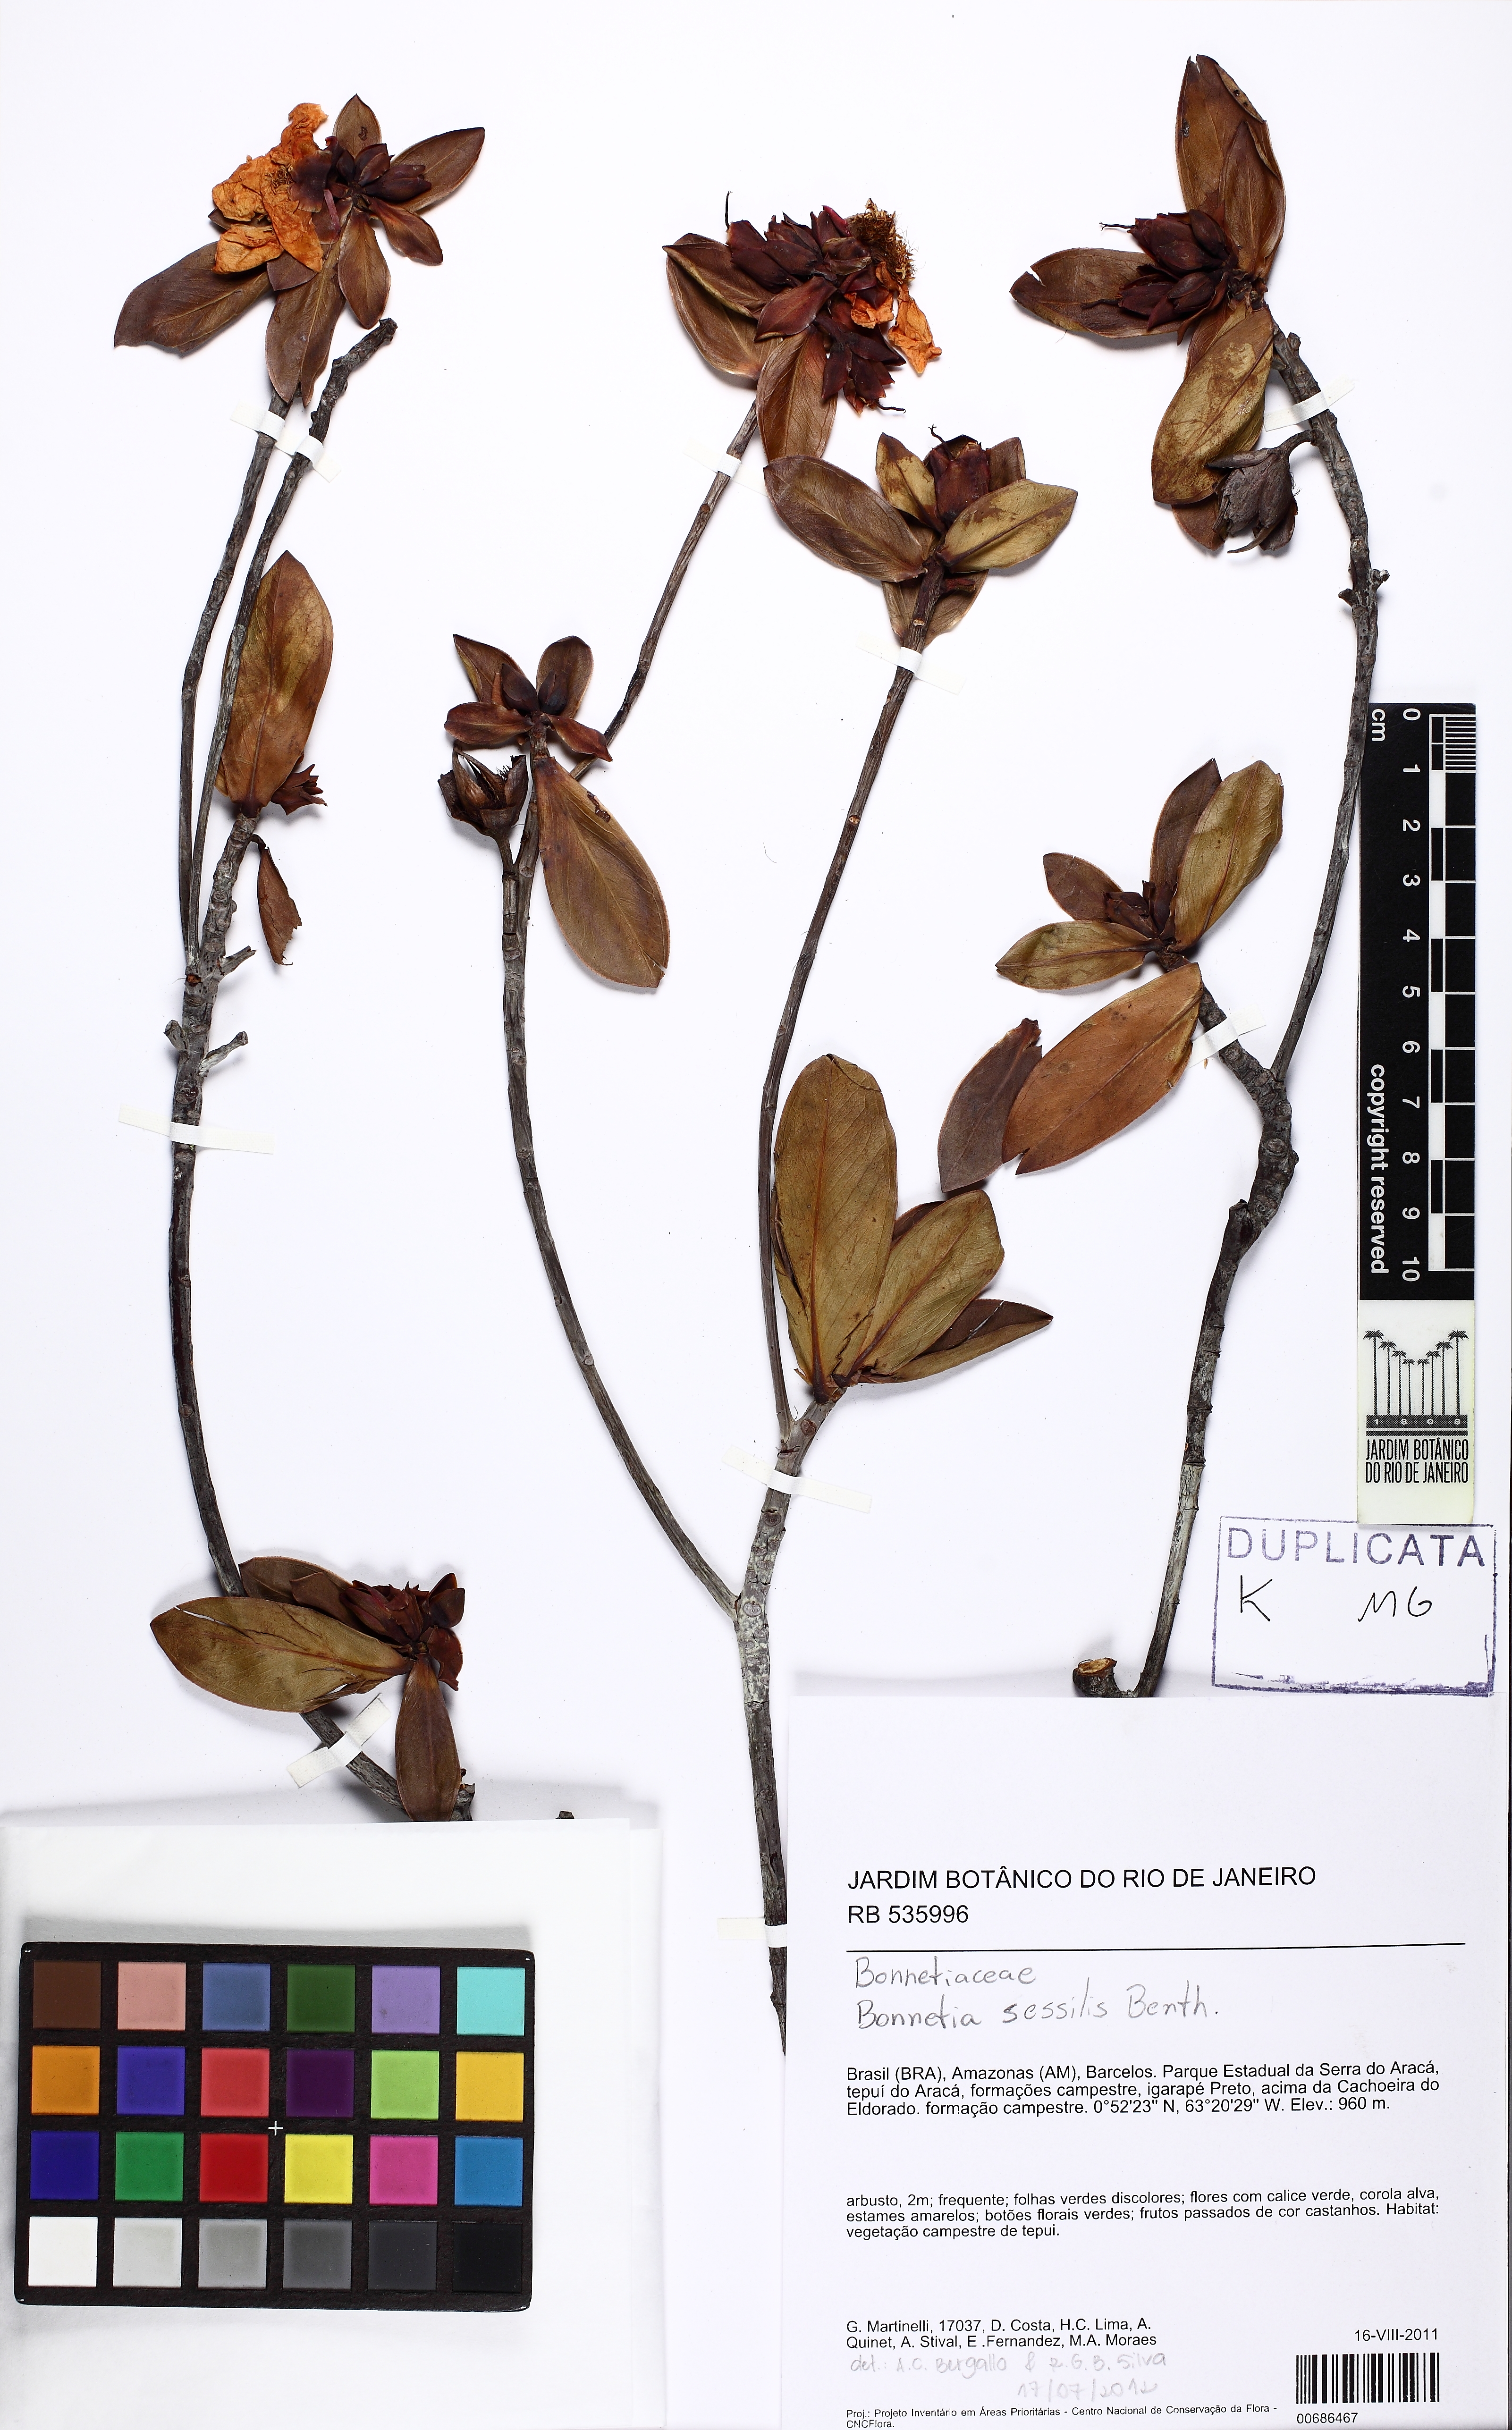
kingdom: Plantae
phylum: Tracheophyta
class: Magnoliopsida
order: Malpighiales
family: Bonnetiaceae
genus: Bonnetia
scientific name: Bonnetia sessilis
